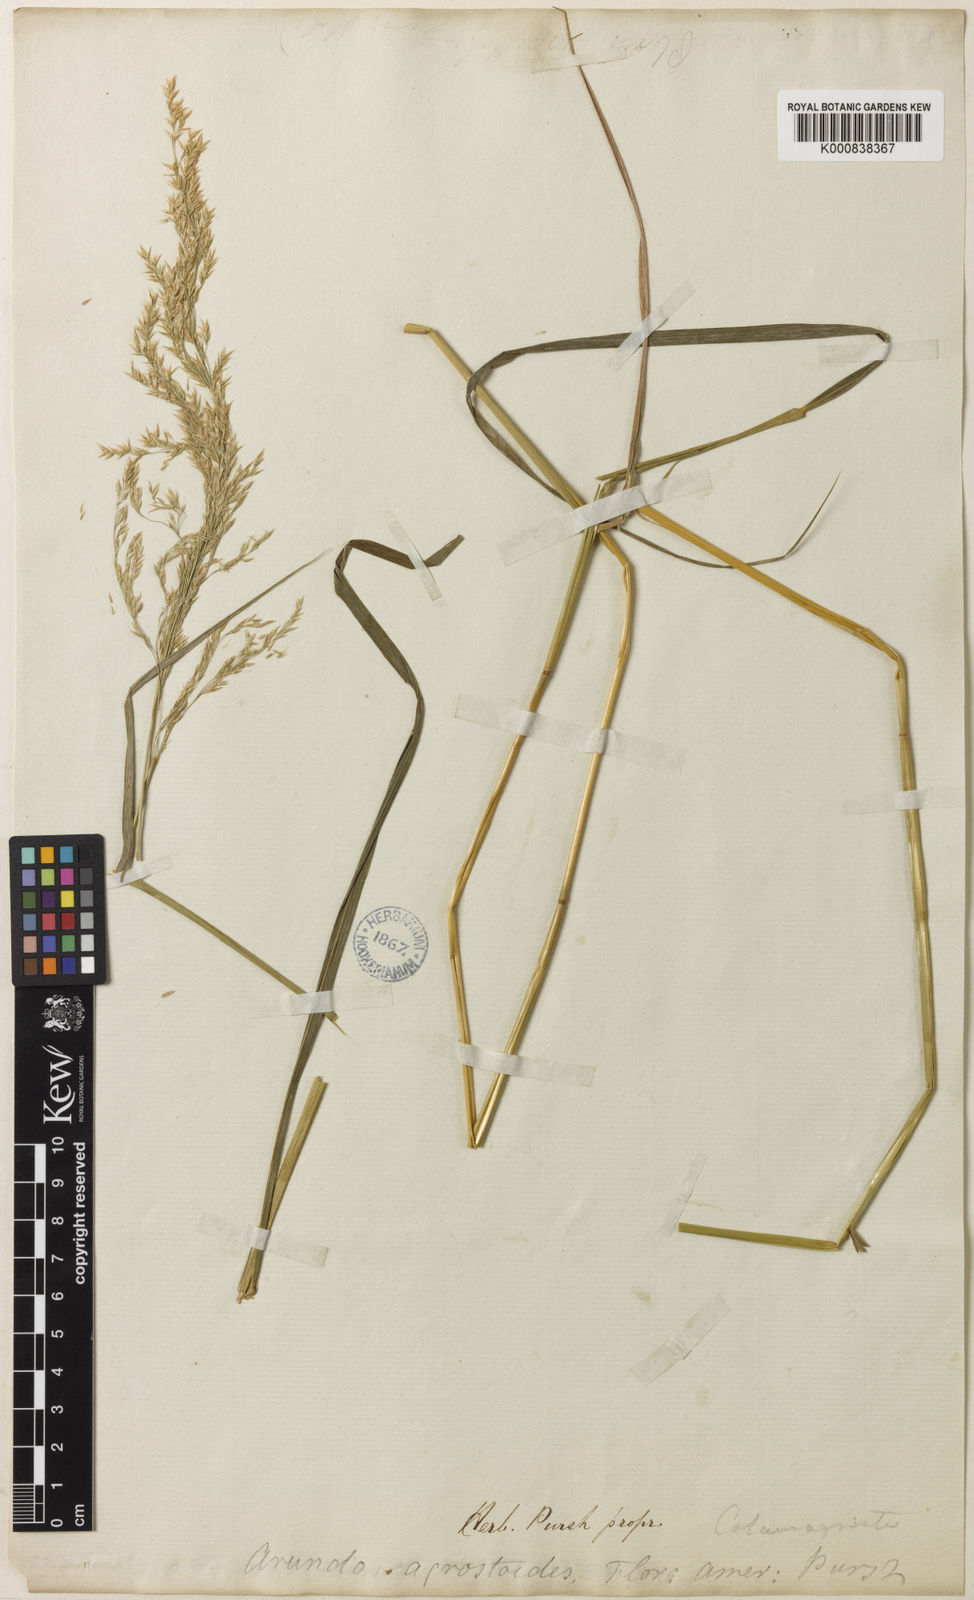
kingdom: Plantae
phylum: Tracheophyta
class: Liliopsida
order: Poales
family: Poaceae
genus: Calamagrostis
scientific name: Calamagrostis canadensis
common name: Canada bluejoint
